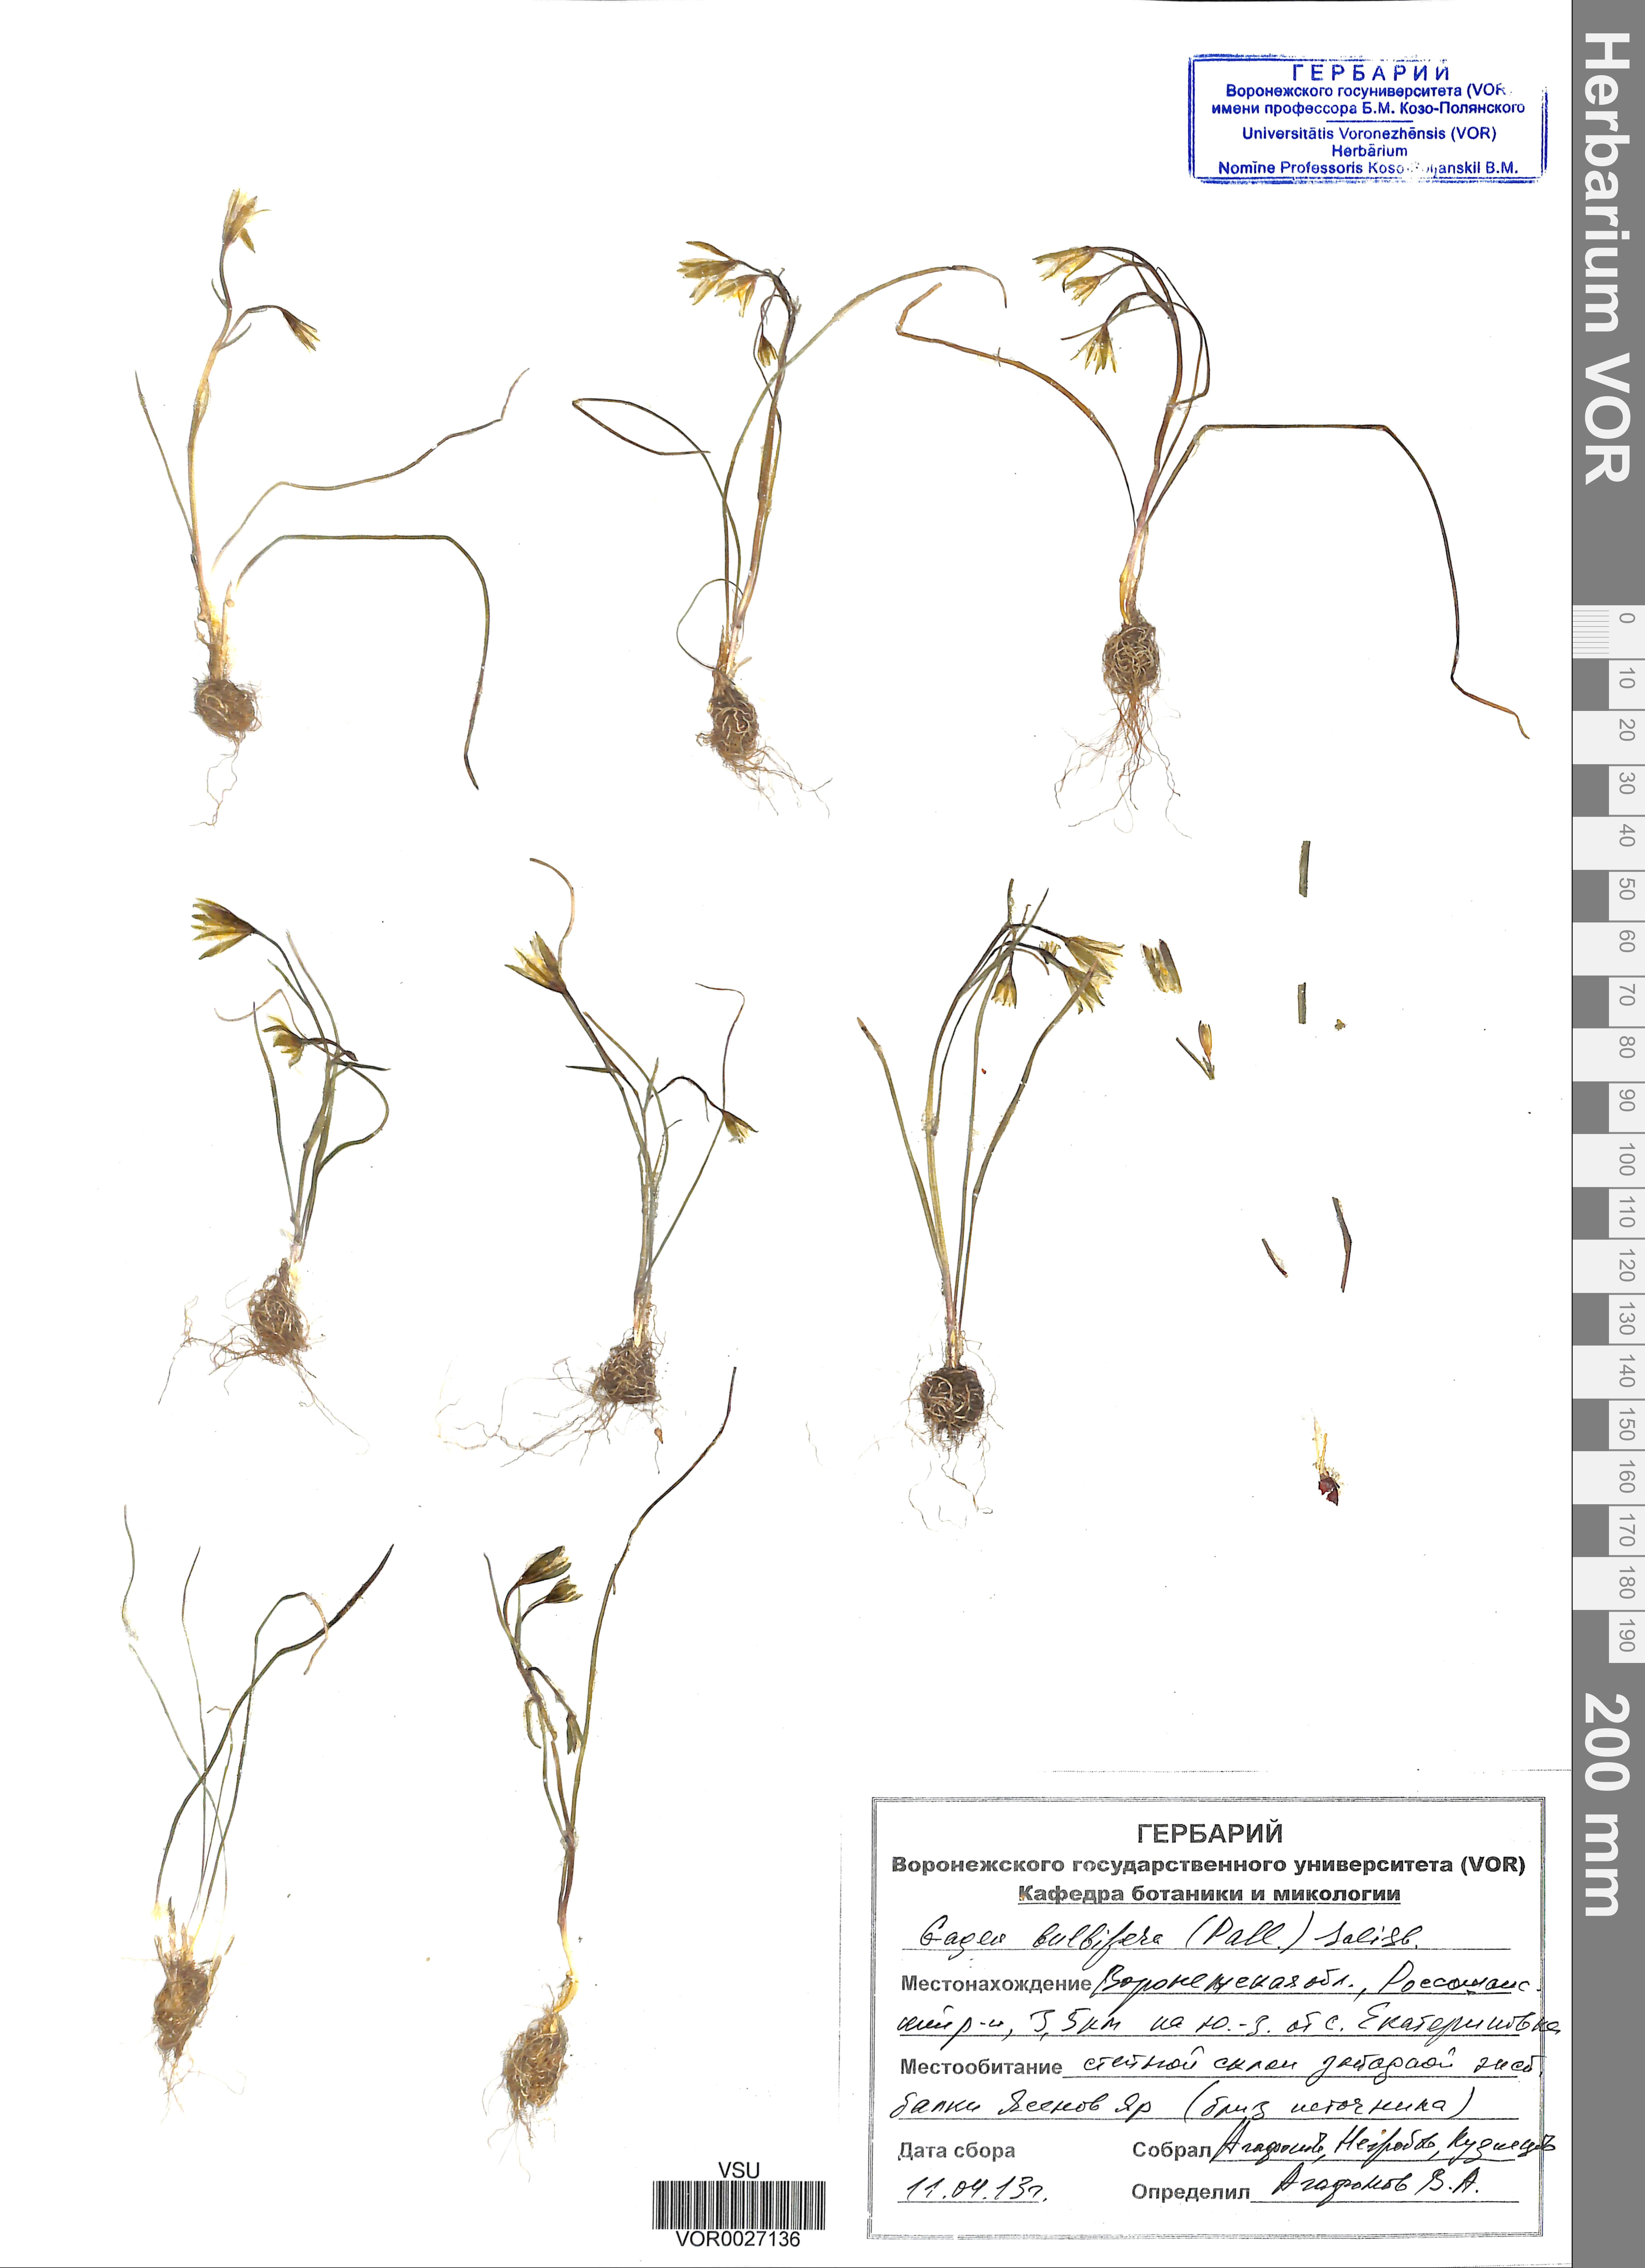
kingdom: Plantae
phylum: Tracheophyta
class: Liliopsida
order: Liliales
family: Liliaceae
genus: Gagea
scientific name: Gagea bulbifera
